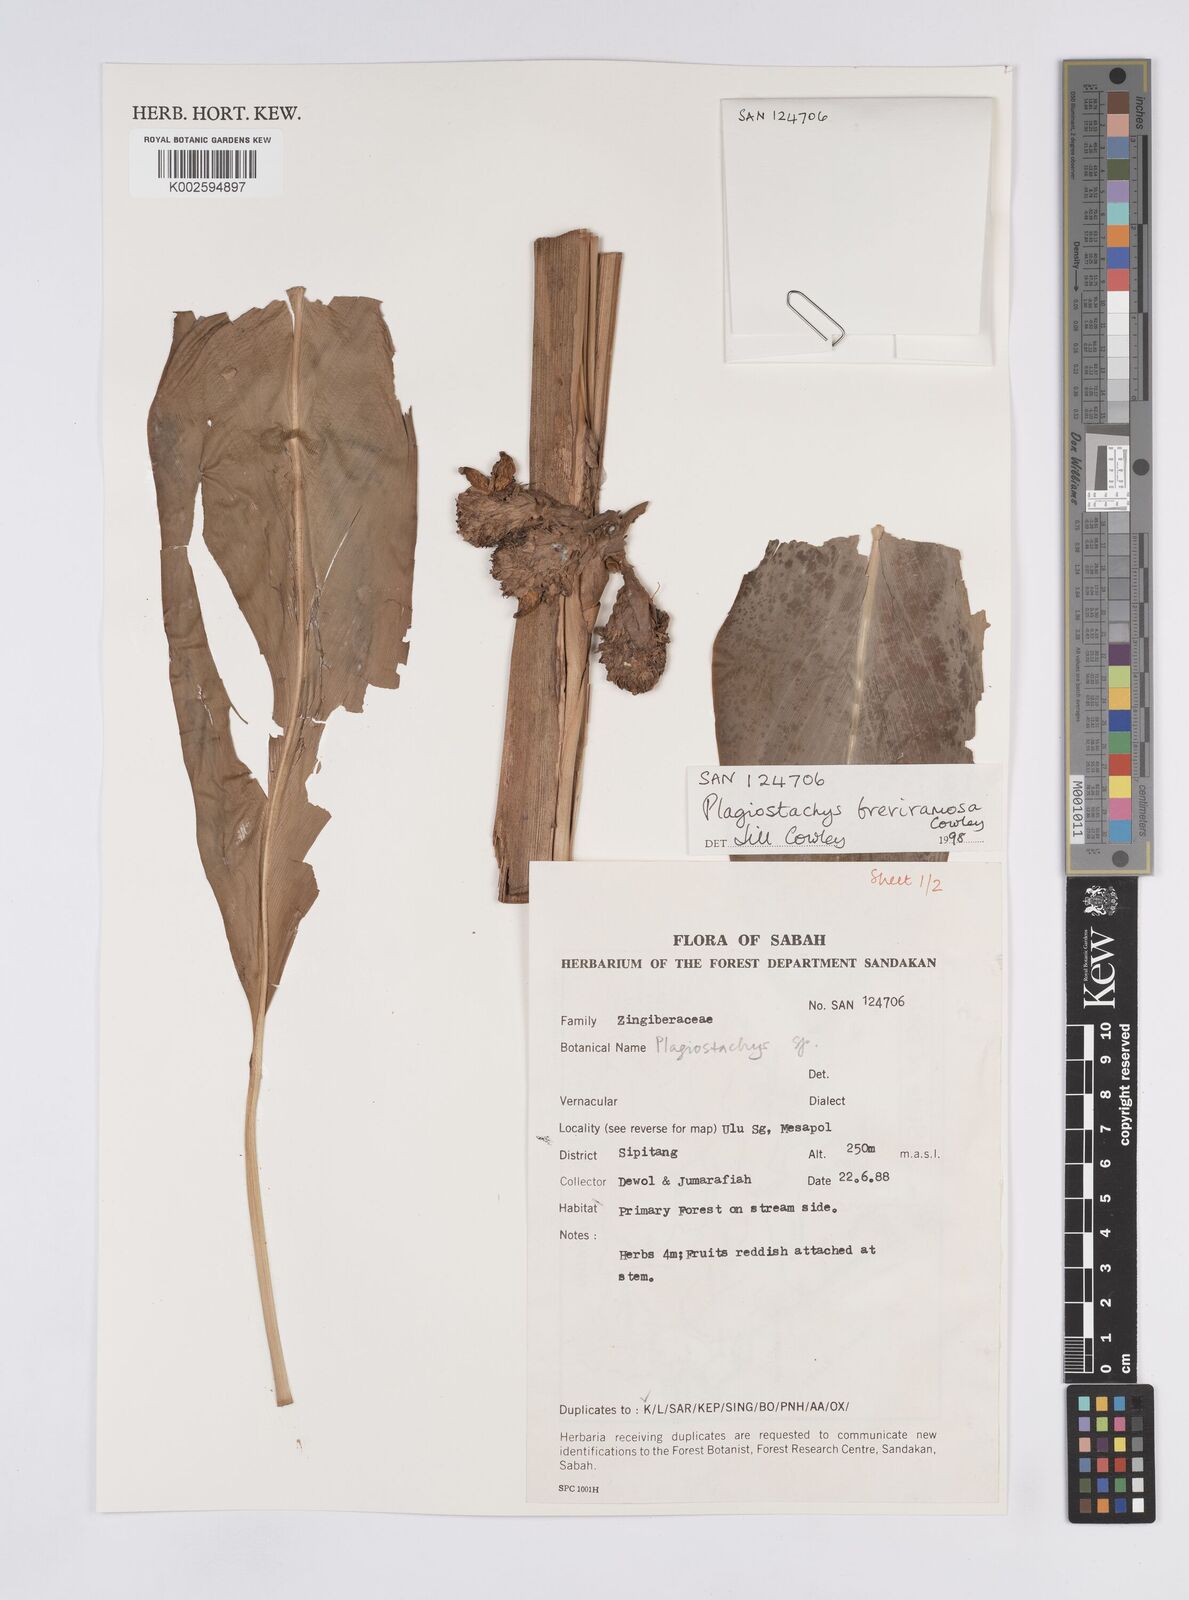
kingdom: Plantae
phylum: Tracheophyta
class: Liliopsida
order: Zingiberales
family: Zingiberaceae
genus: Plagiostachys
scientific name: Plagiostachys breviramosa
